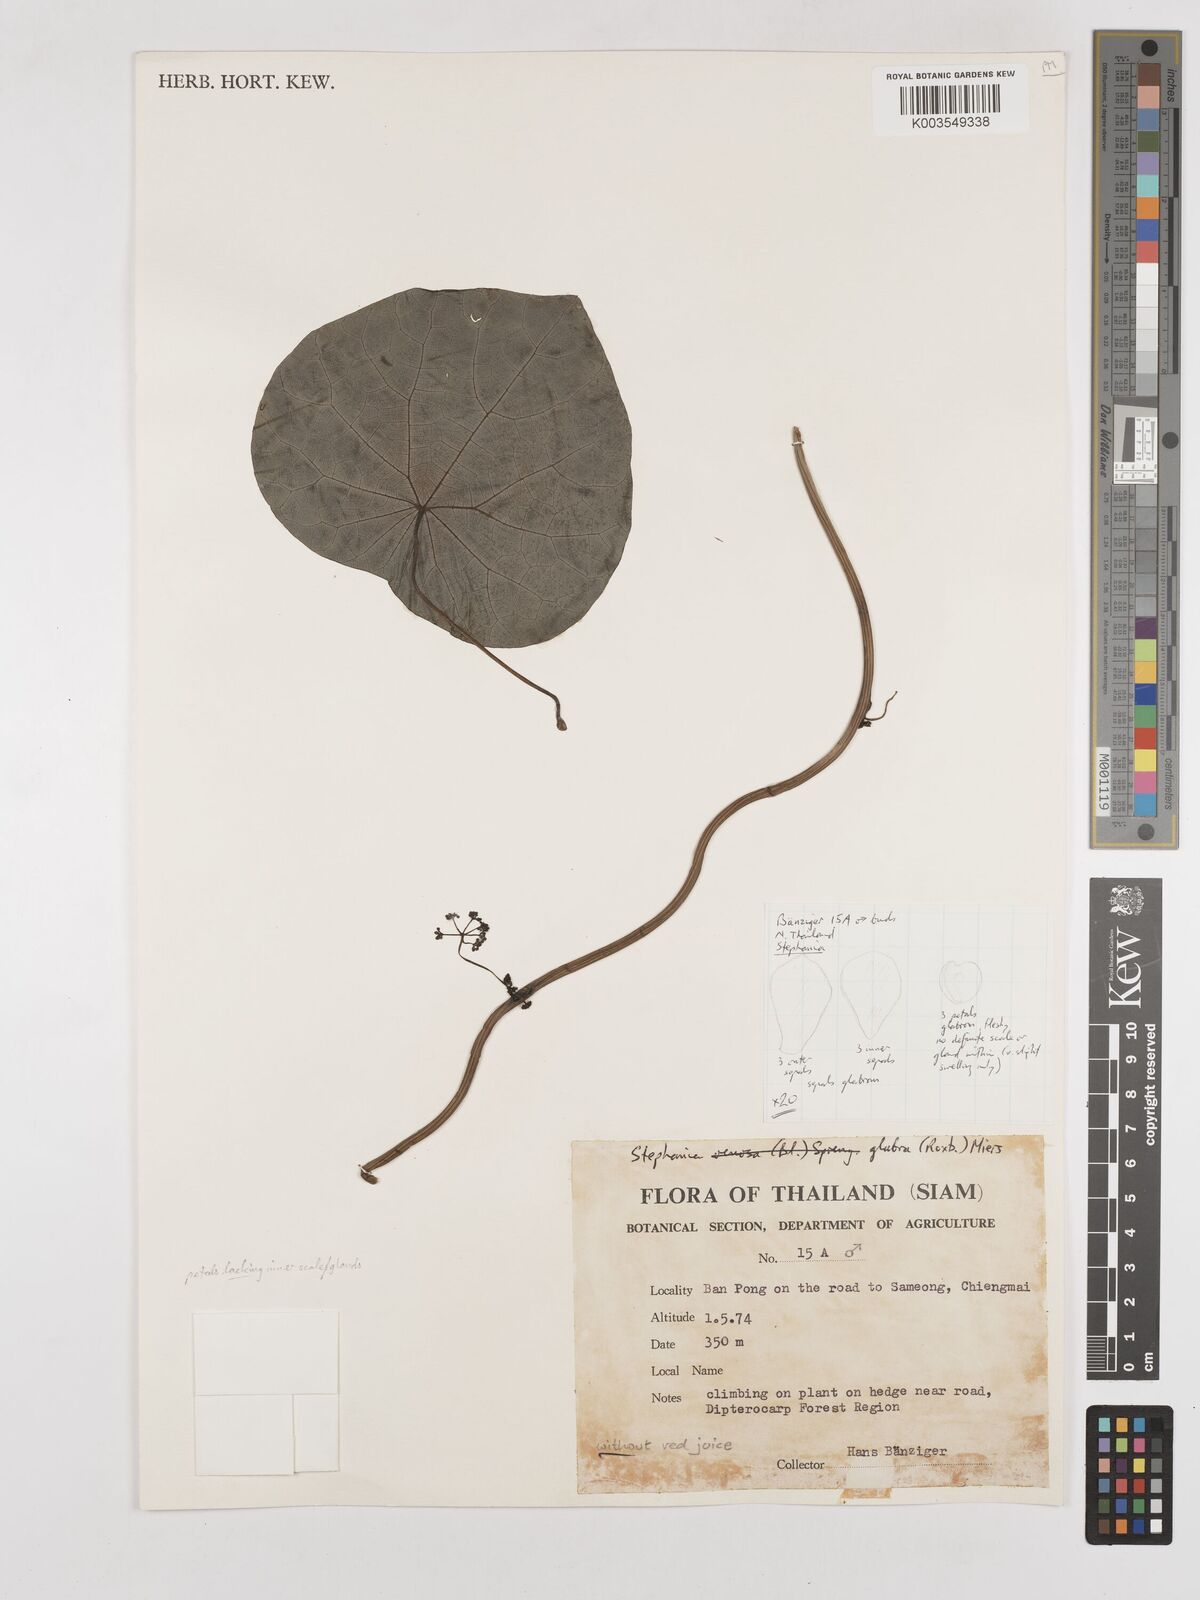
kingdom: Plantae
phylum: Tracheophyta
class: Magnoliopsida
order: Ranunculales
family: Menispermaceae
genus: Stephania
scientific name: Stephania rotunda
